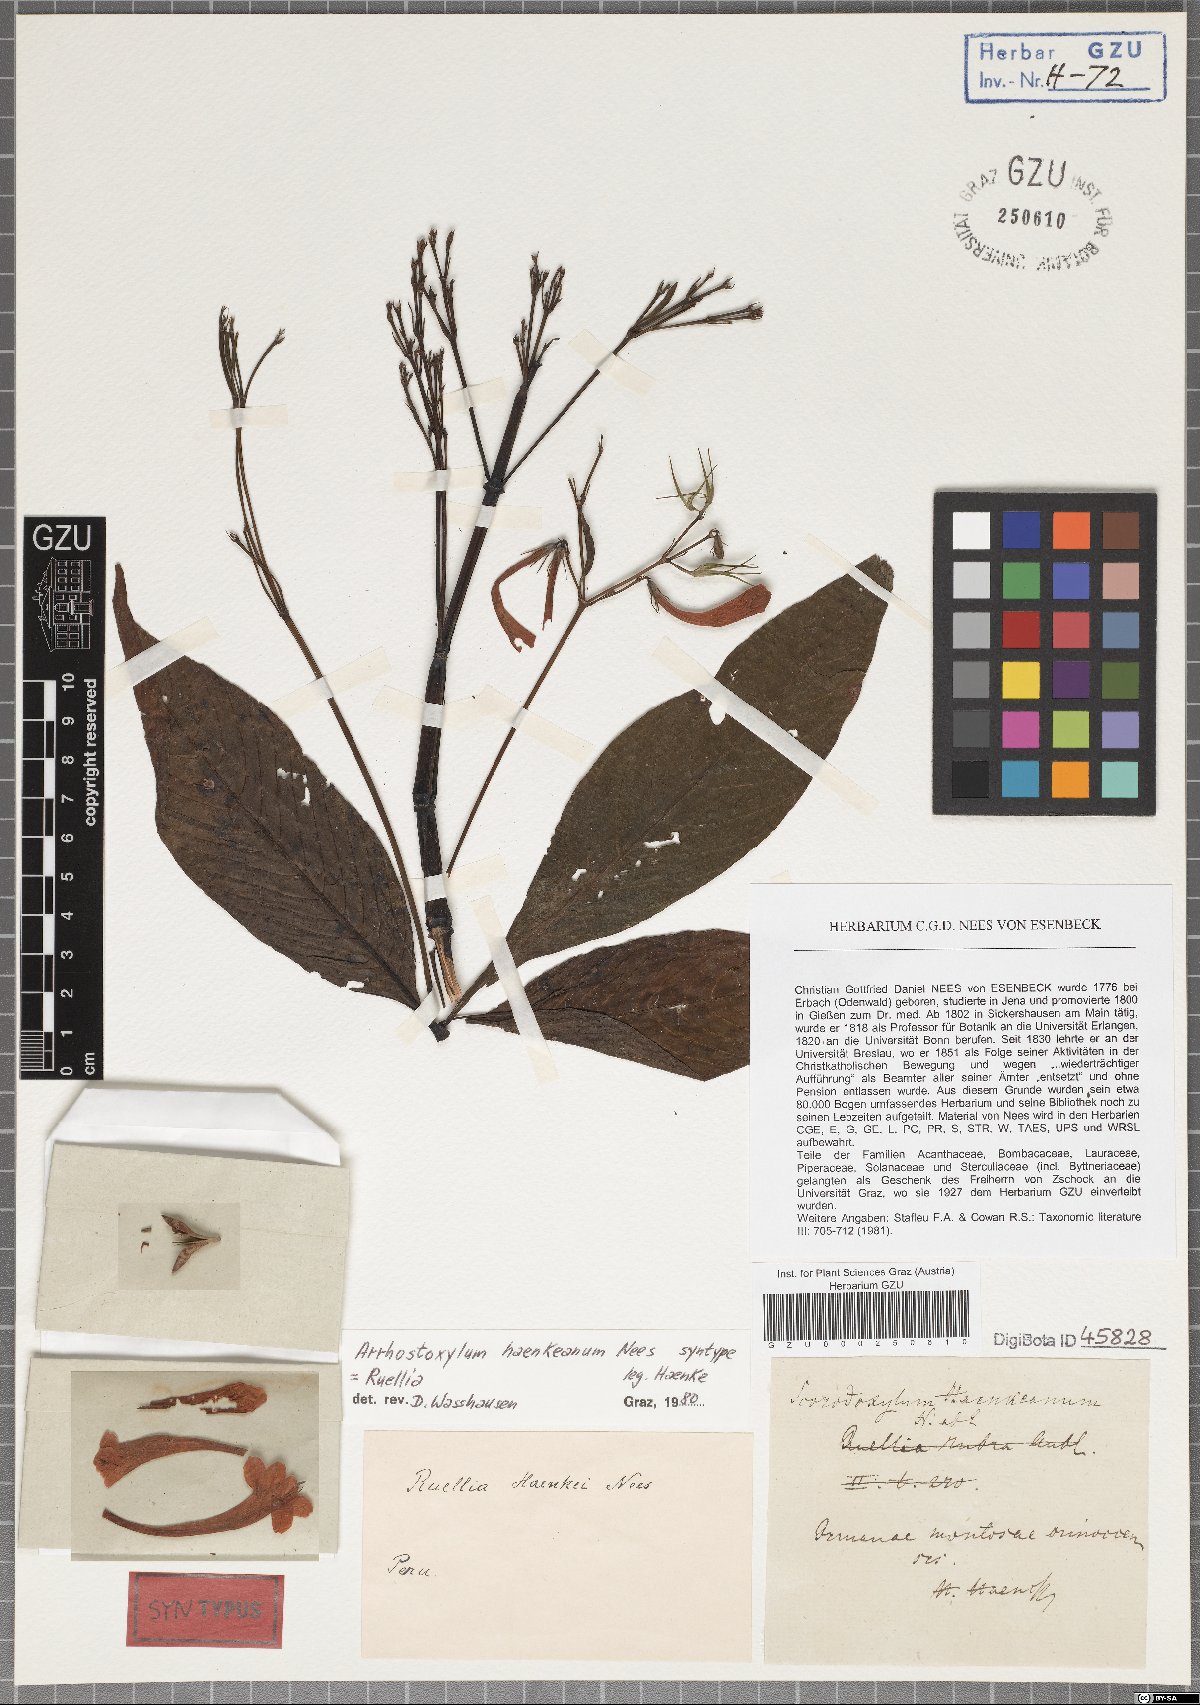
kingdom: Plantae
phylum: Tracheophyta
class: Magnoliopsida
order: Lamiales
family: Acanthaceae
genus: Ruellia
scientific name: Ruellia haenkeana
